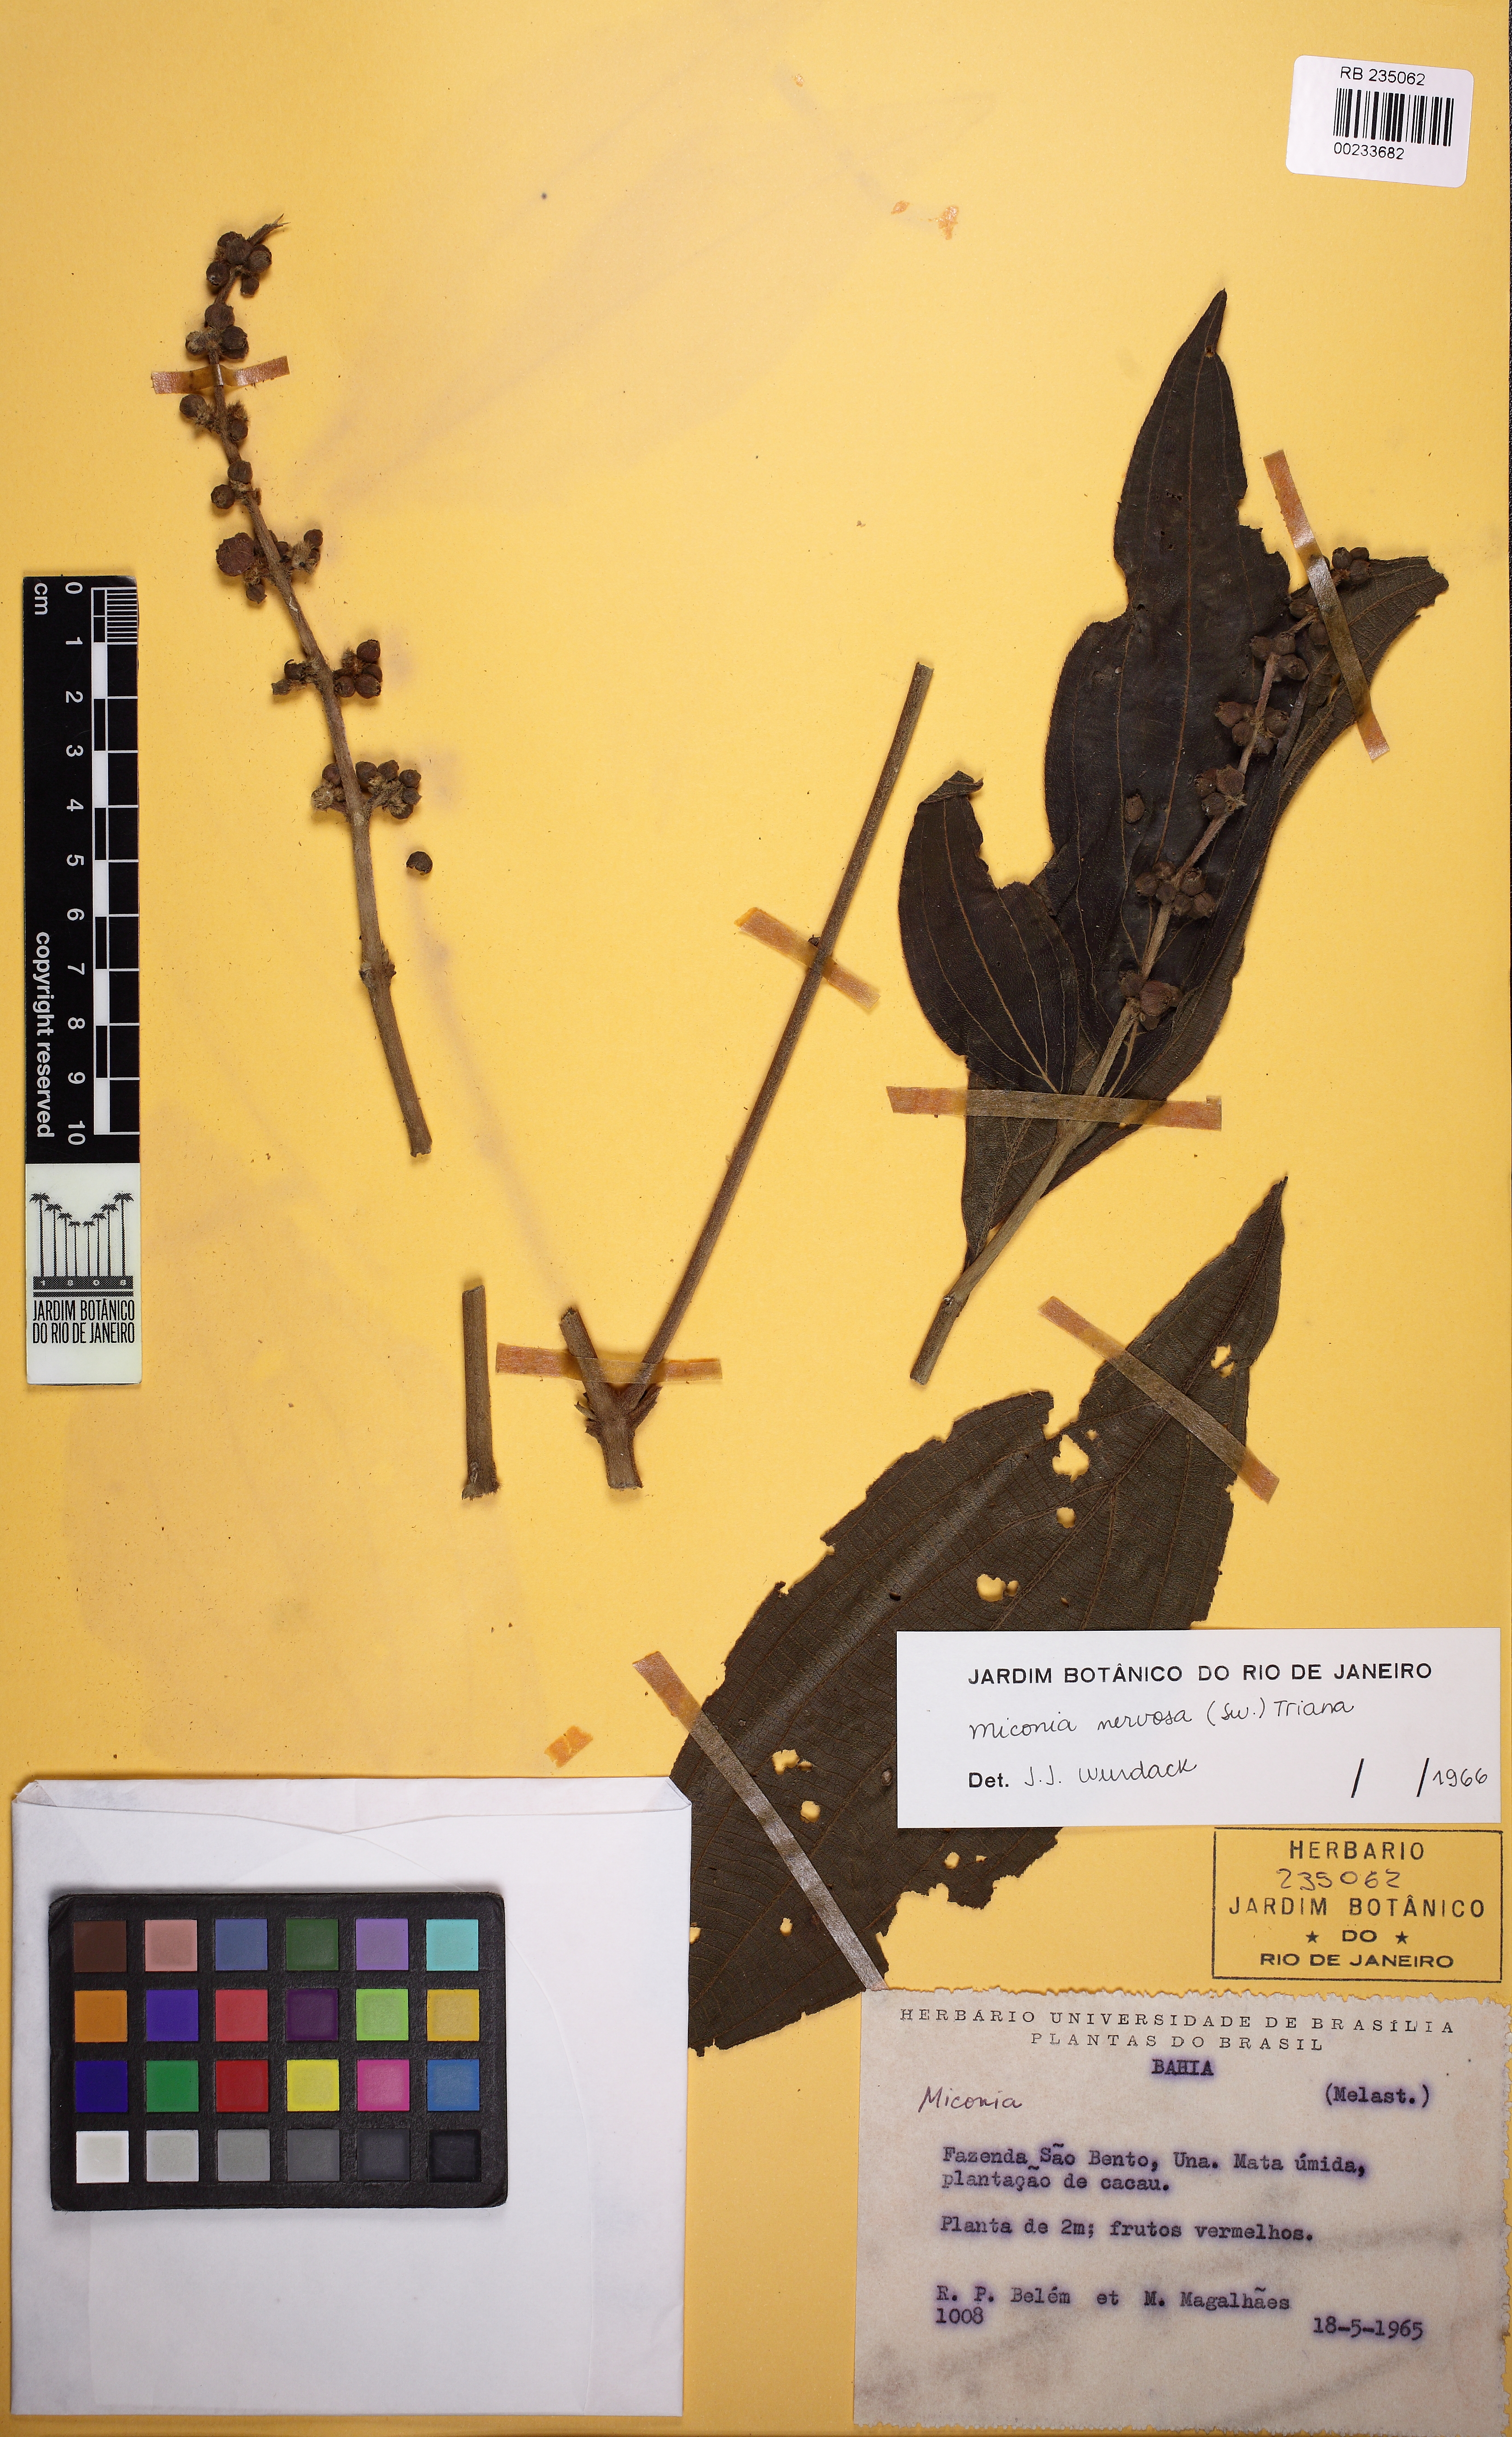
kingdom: Plantae
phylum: Tracheophyta
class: Magnoliopsida
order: Myrtales
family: Melastomataceae
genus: Miconia
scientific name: Miconia nervosa
